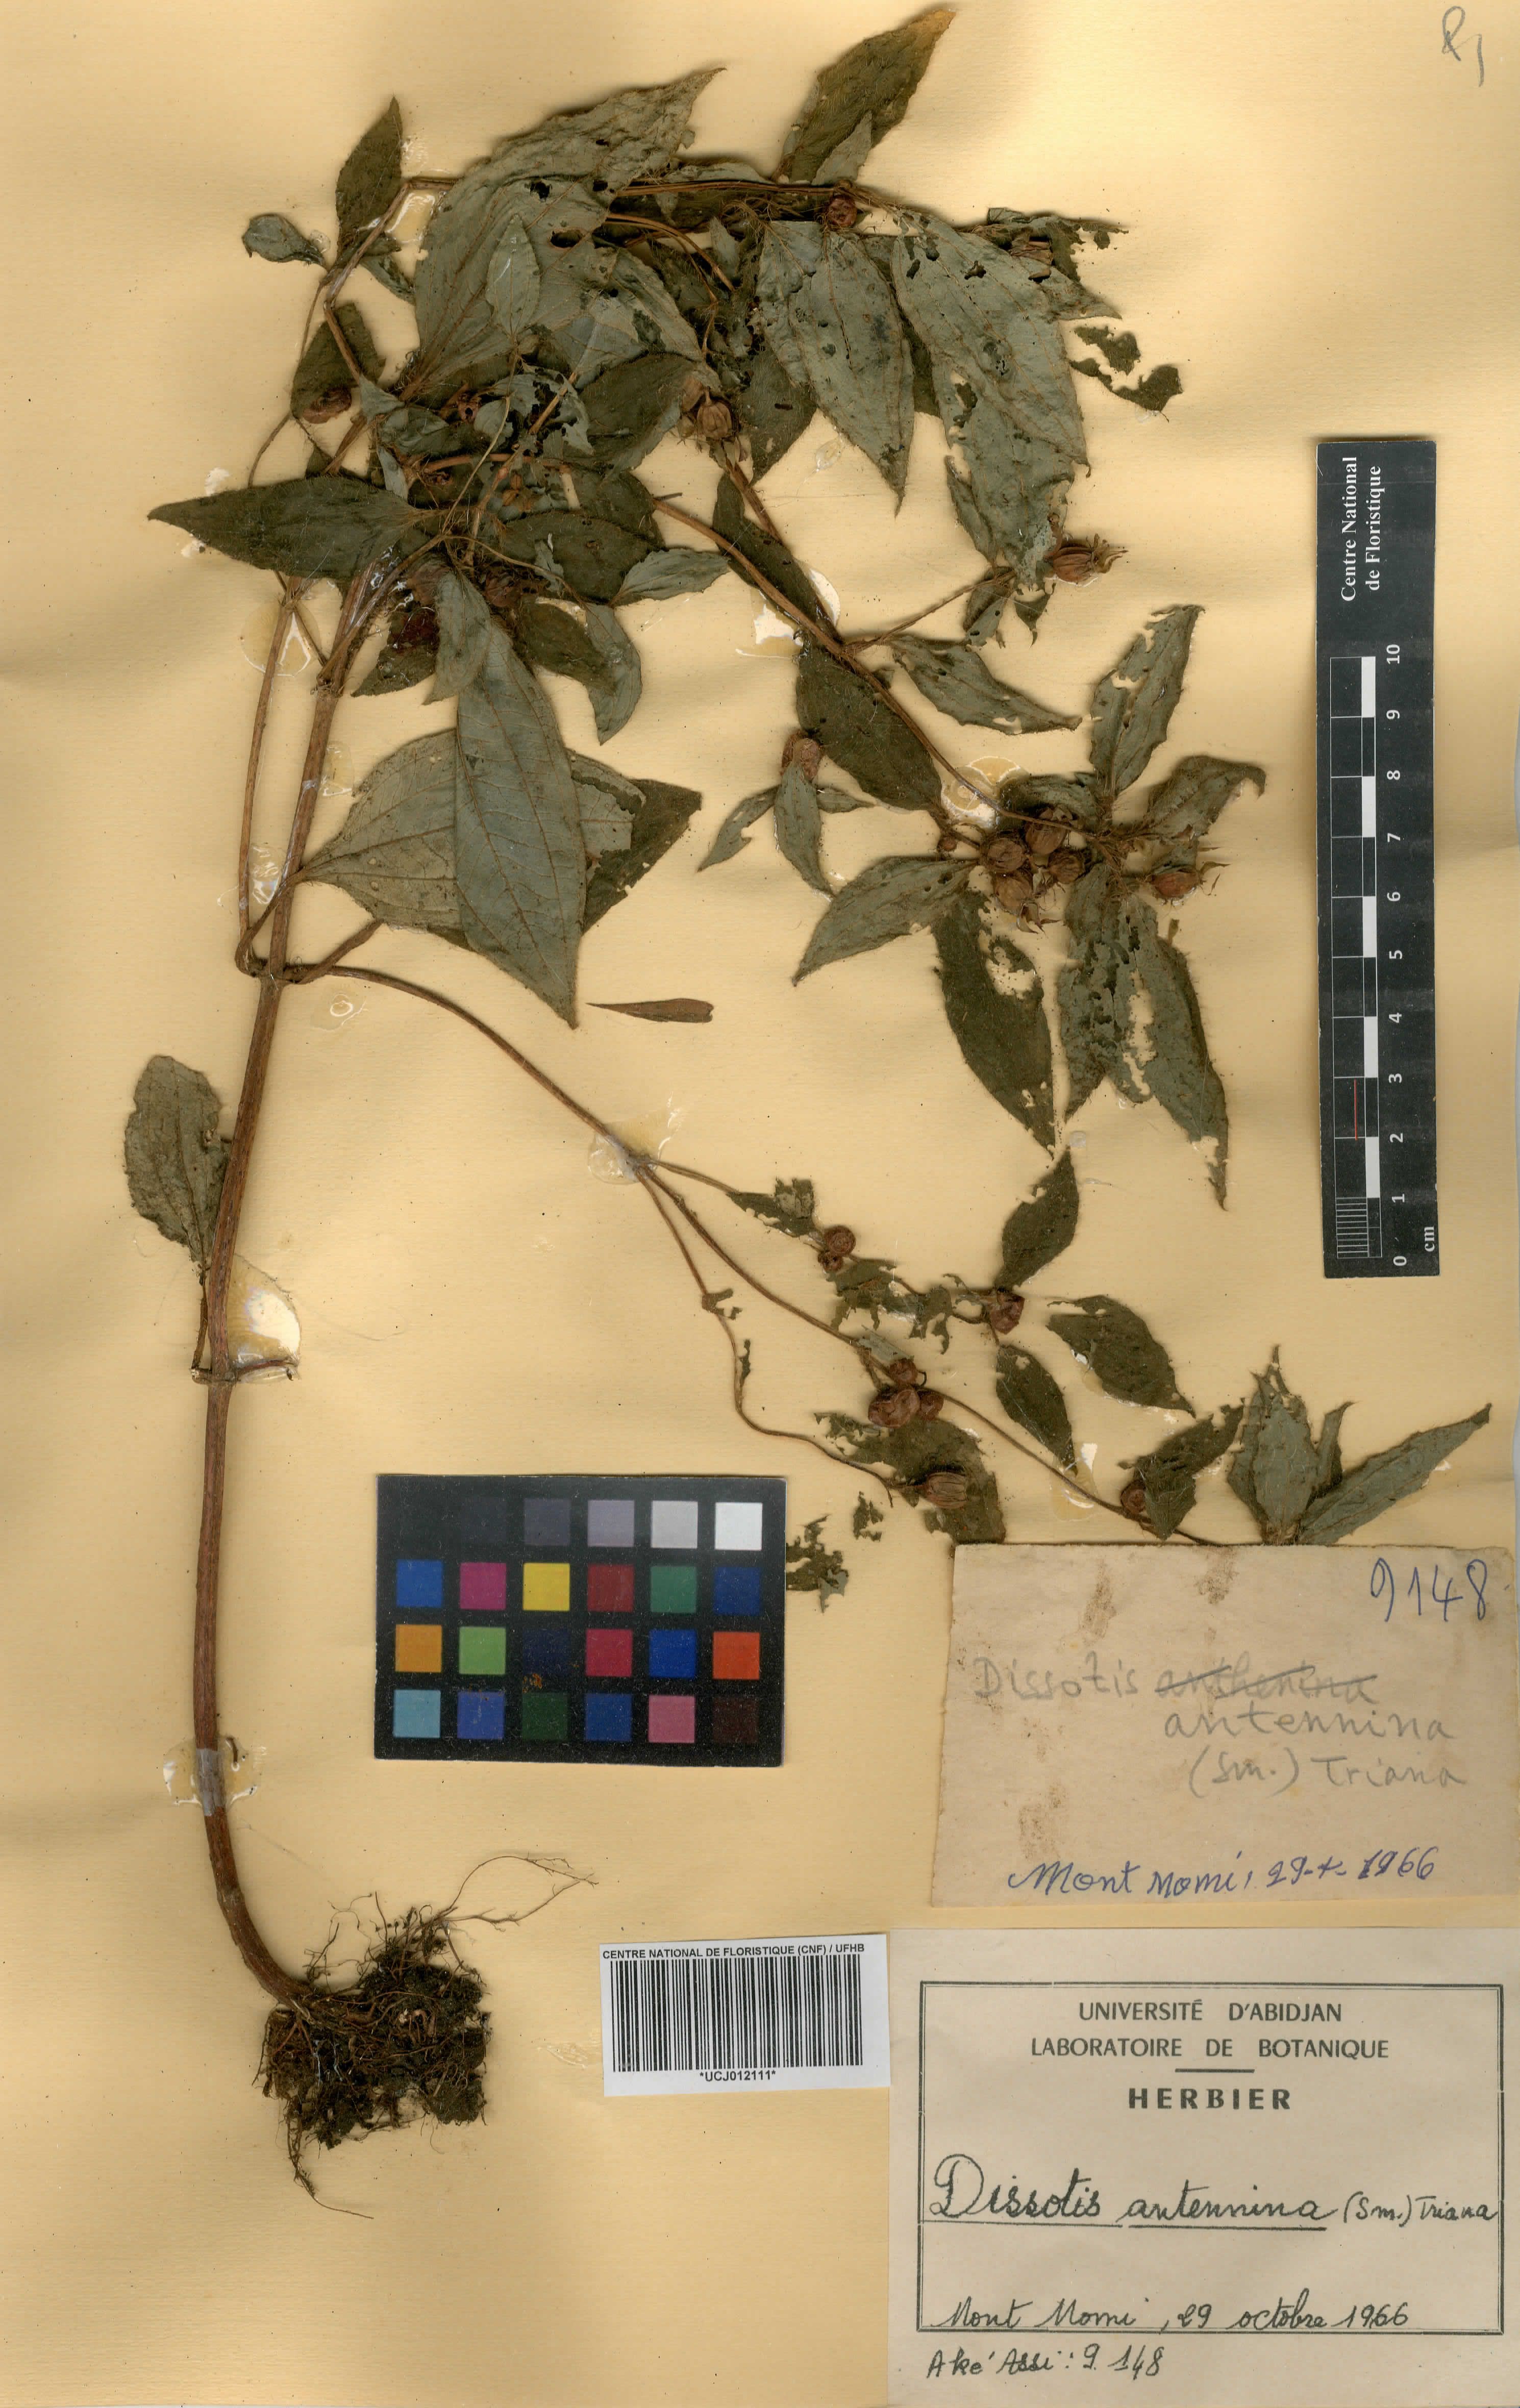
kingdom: Plantae
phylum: Tracheophyta
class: Magnoliopsida
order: Myrtales
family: Melastomataceae
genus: Guyonia
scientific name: Guyonia antennina
